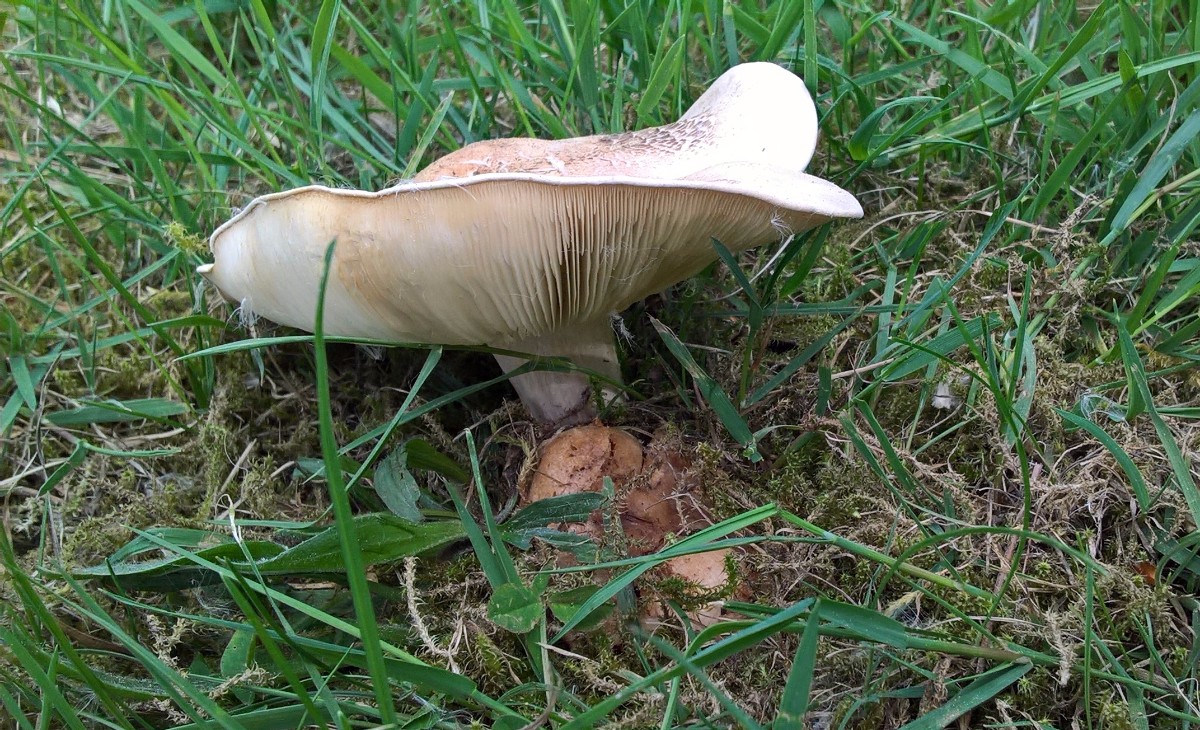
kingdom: Fungi
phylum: Basidiomycota
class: Agaricomycetes
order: Agaricales
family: Lyophyllaceae
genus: Calocybe
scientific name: Calocybe gambosa
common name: vårmusseron
